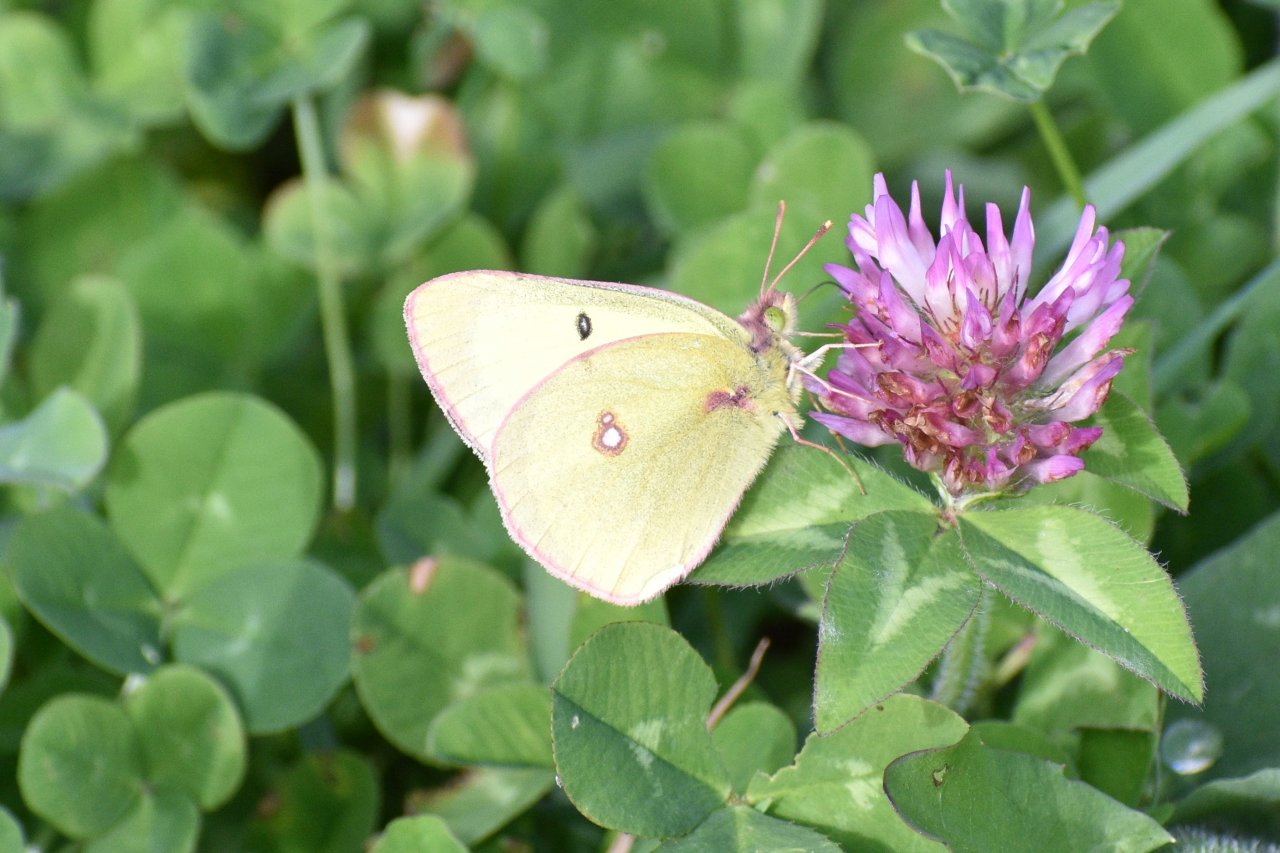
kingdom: Animalia
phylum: Arthropoda
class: Insecta
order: Lepidoptera
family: Pieridae
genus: Colias
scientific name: Colias philodice
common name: Clouded Sulphur
